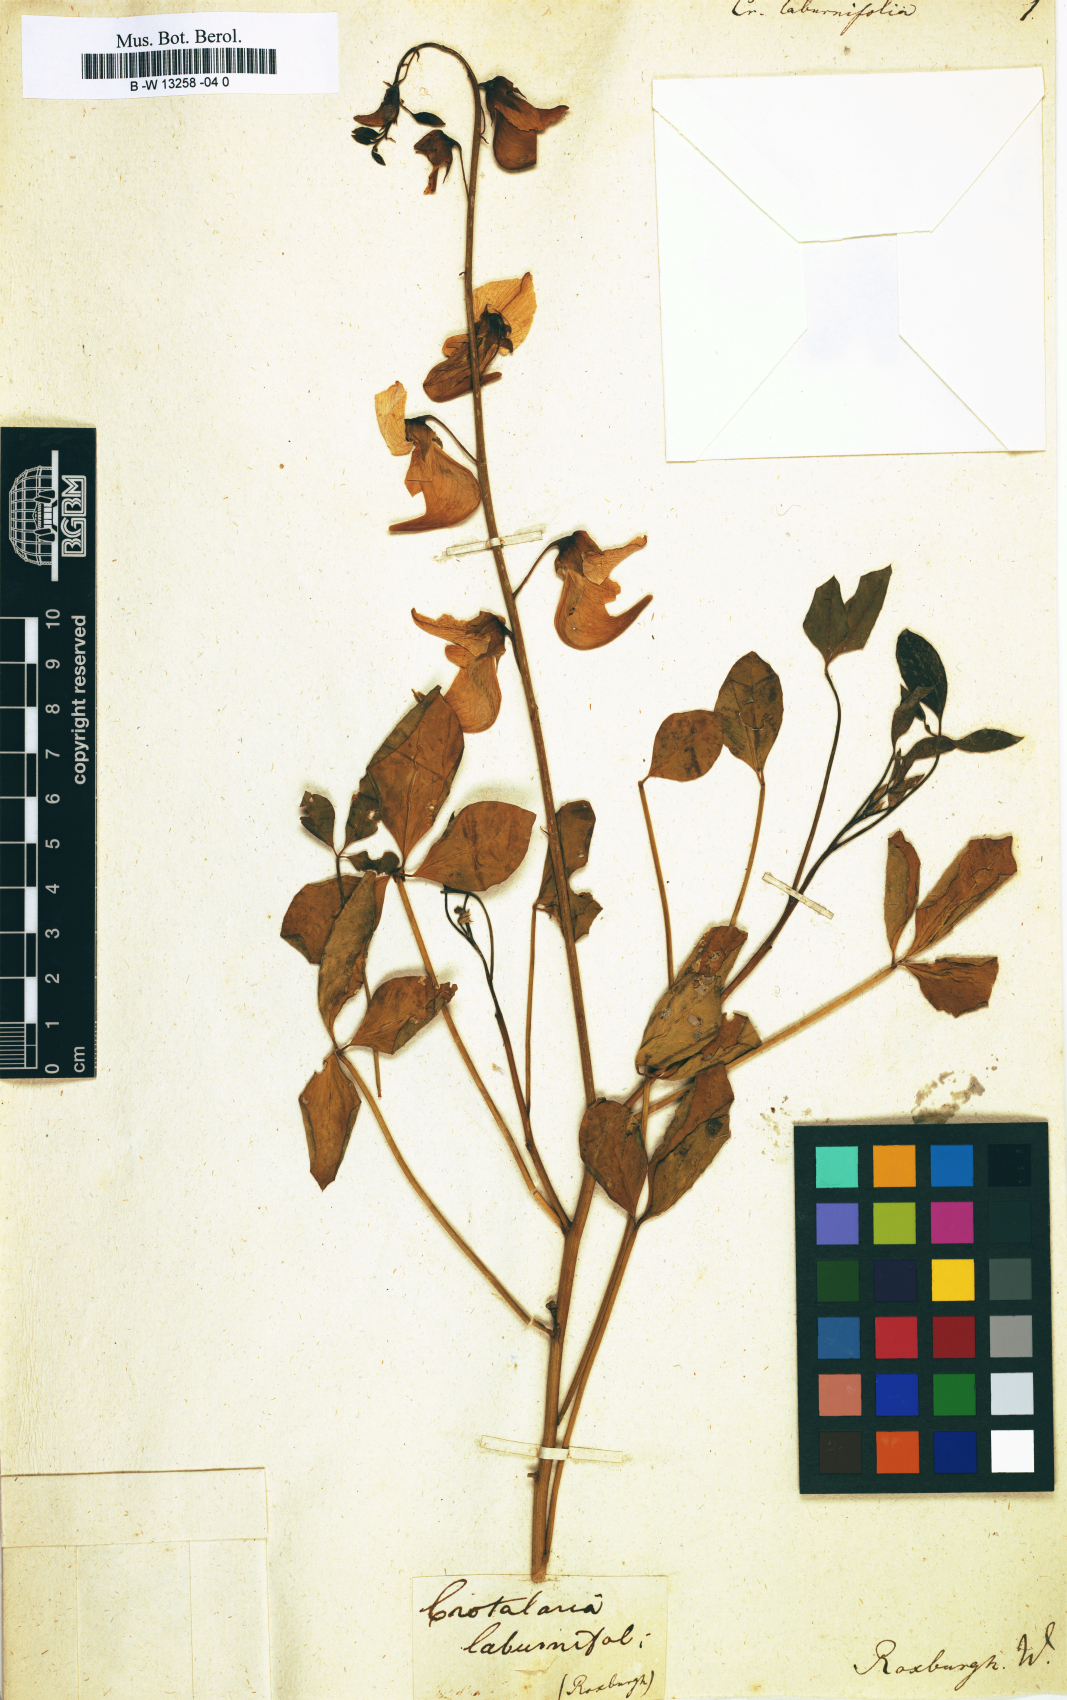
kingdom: Plantae
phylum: Tracheophyta
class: Magnoliopsida
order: Fabales
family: Fabaceae
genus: Crotalaria
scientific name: Crotalaria paniculata
